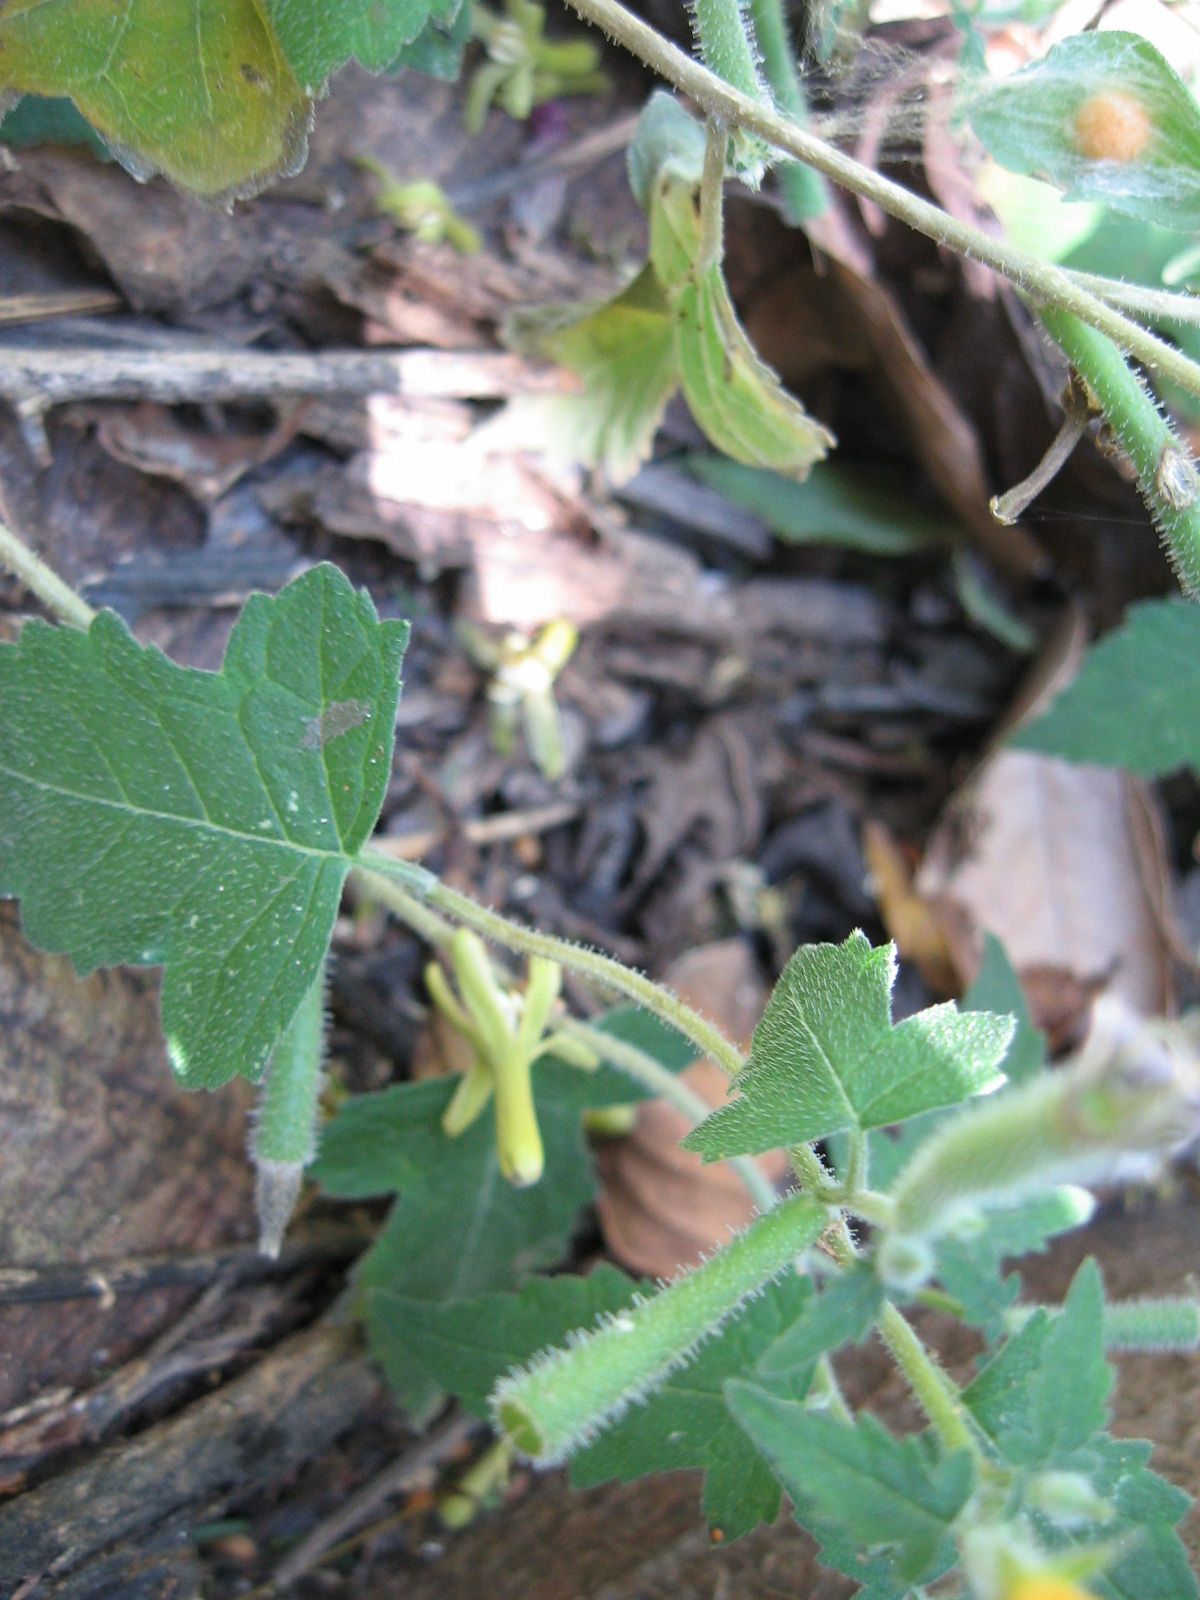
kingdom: Plantae
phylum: Tracheophyta
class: Magnoliopsida
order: Cornales
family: Loasaceae
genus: Mentzelia
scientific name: Mentzelia aspera
